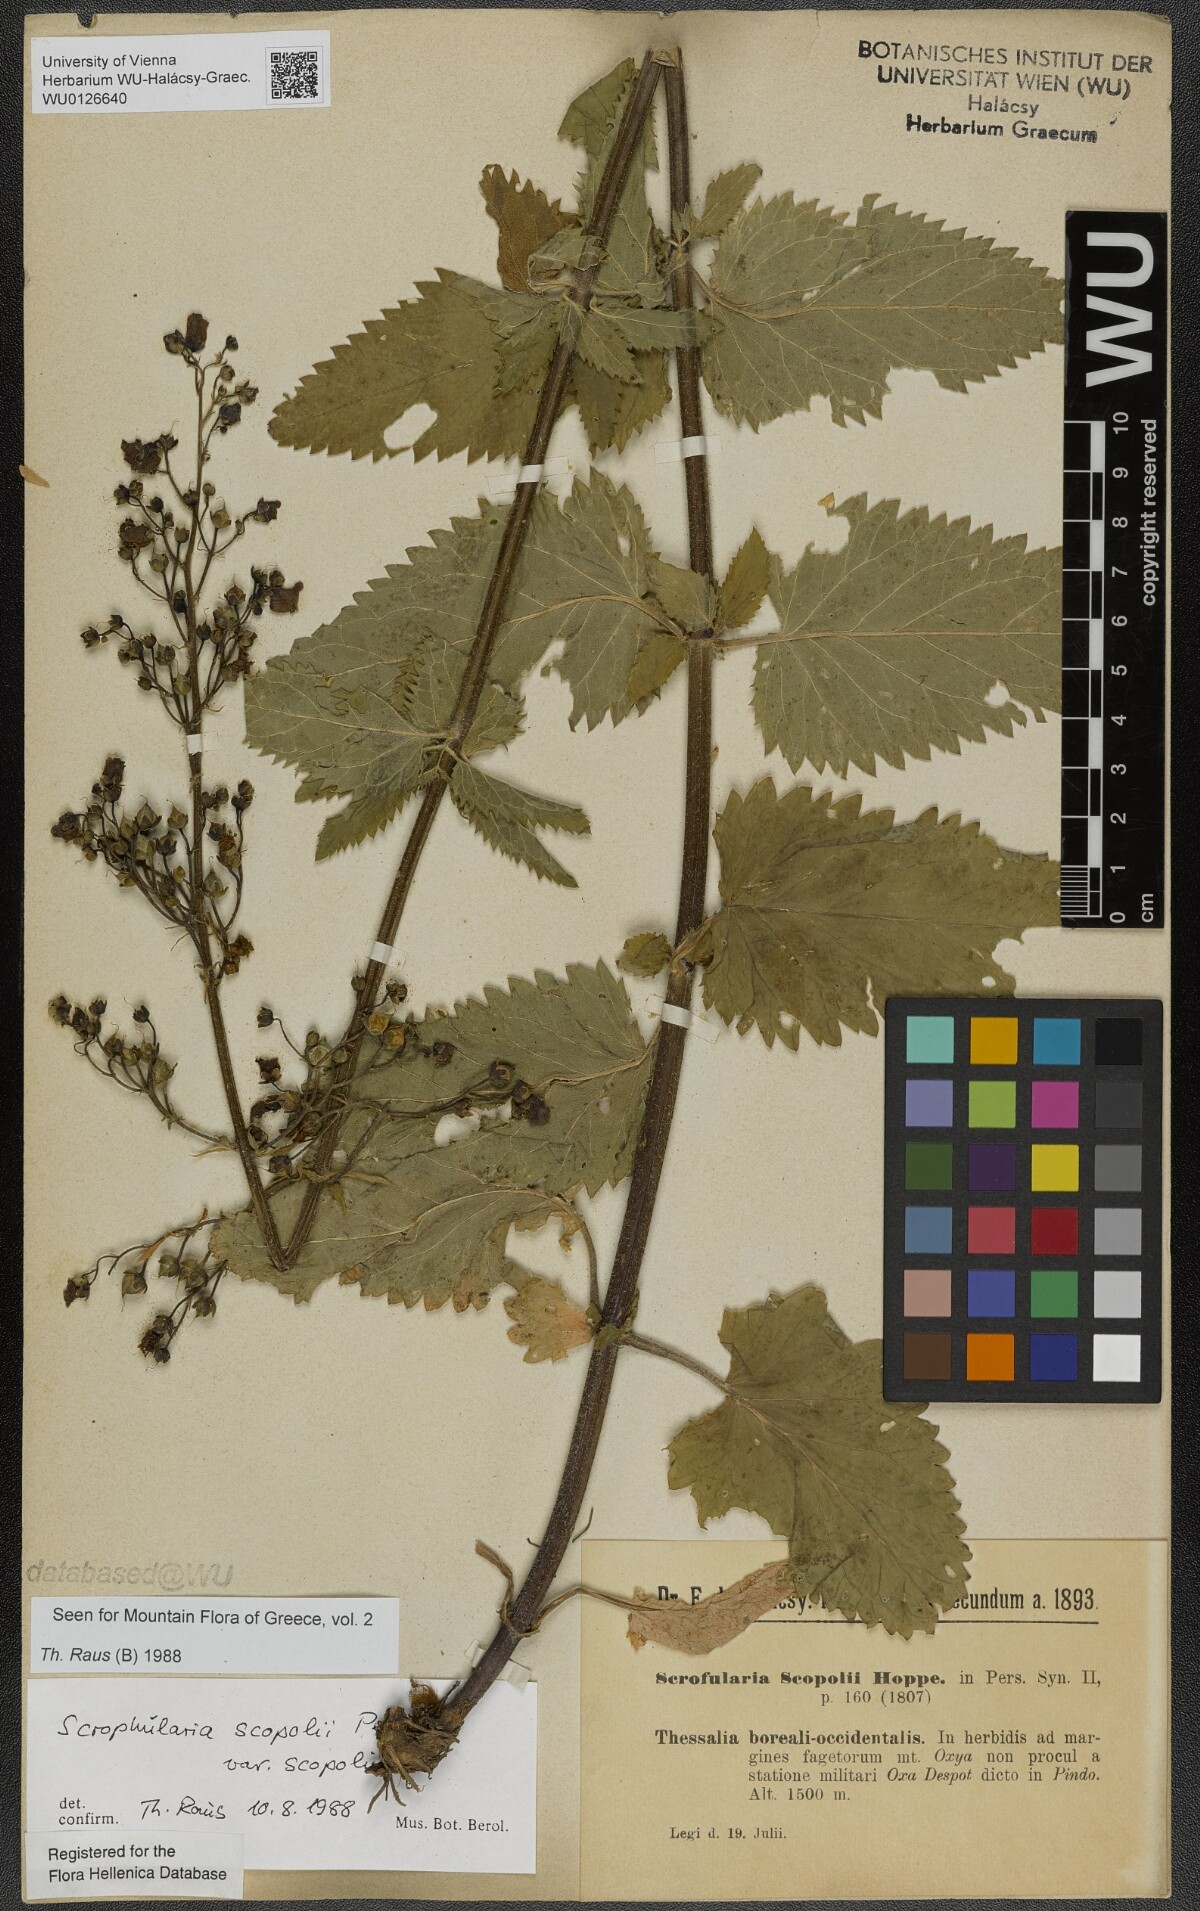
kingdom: Plantae
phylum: Tracheophyta
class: Magnoliopsida
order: Lamiales
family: Scrophulariaceae
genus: Scrophularia
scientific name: Scrophularia scopolii
